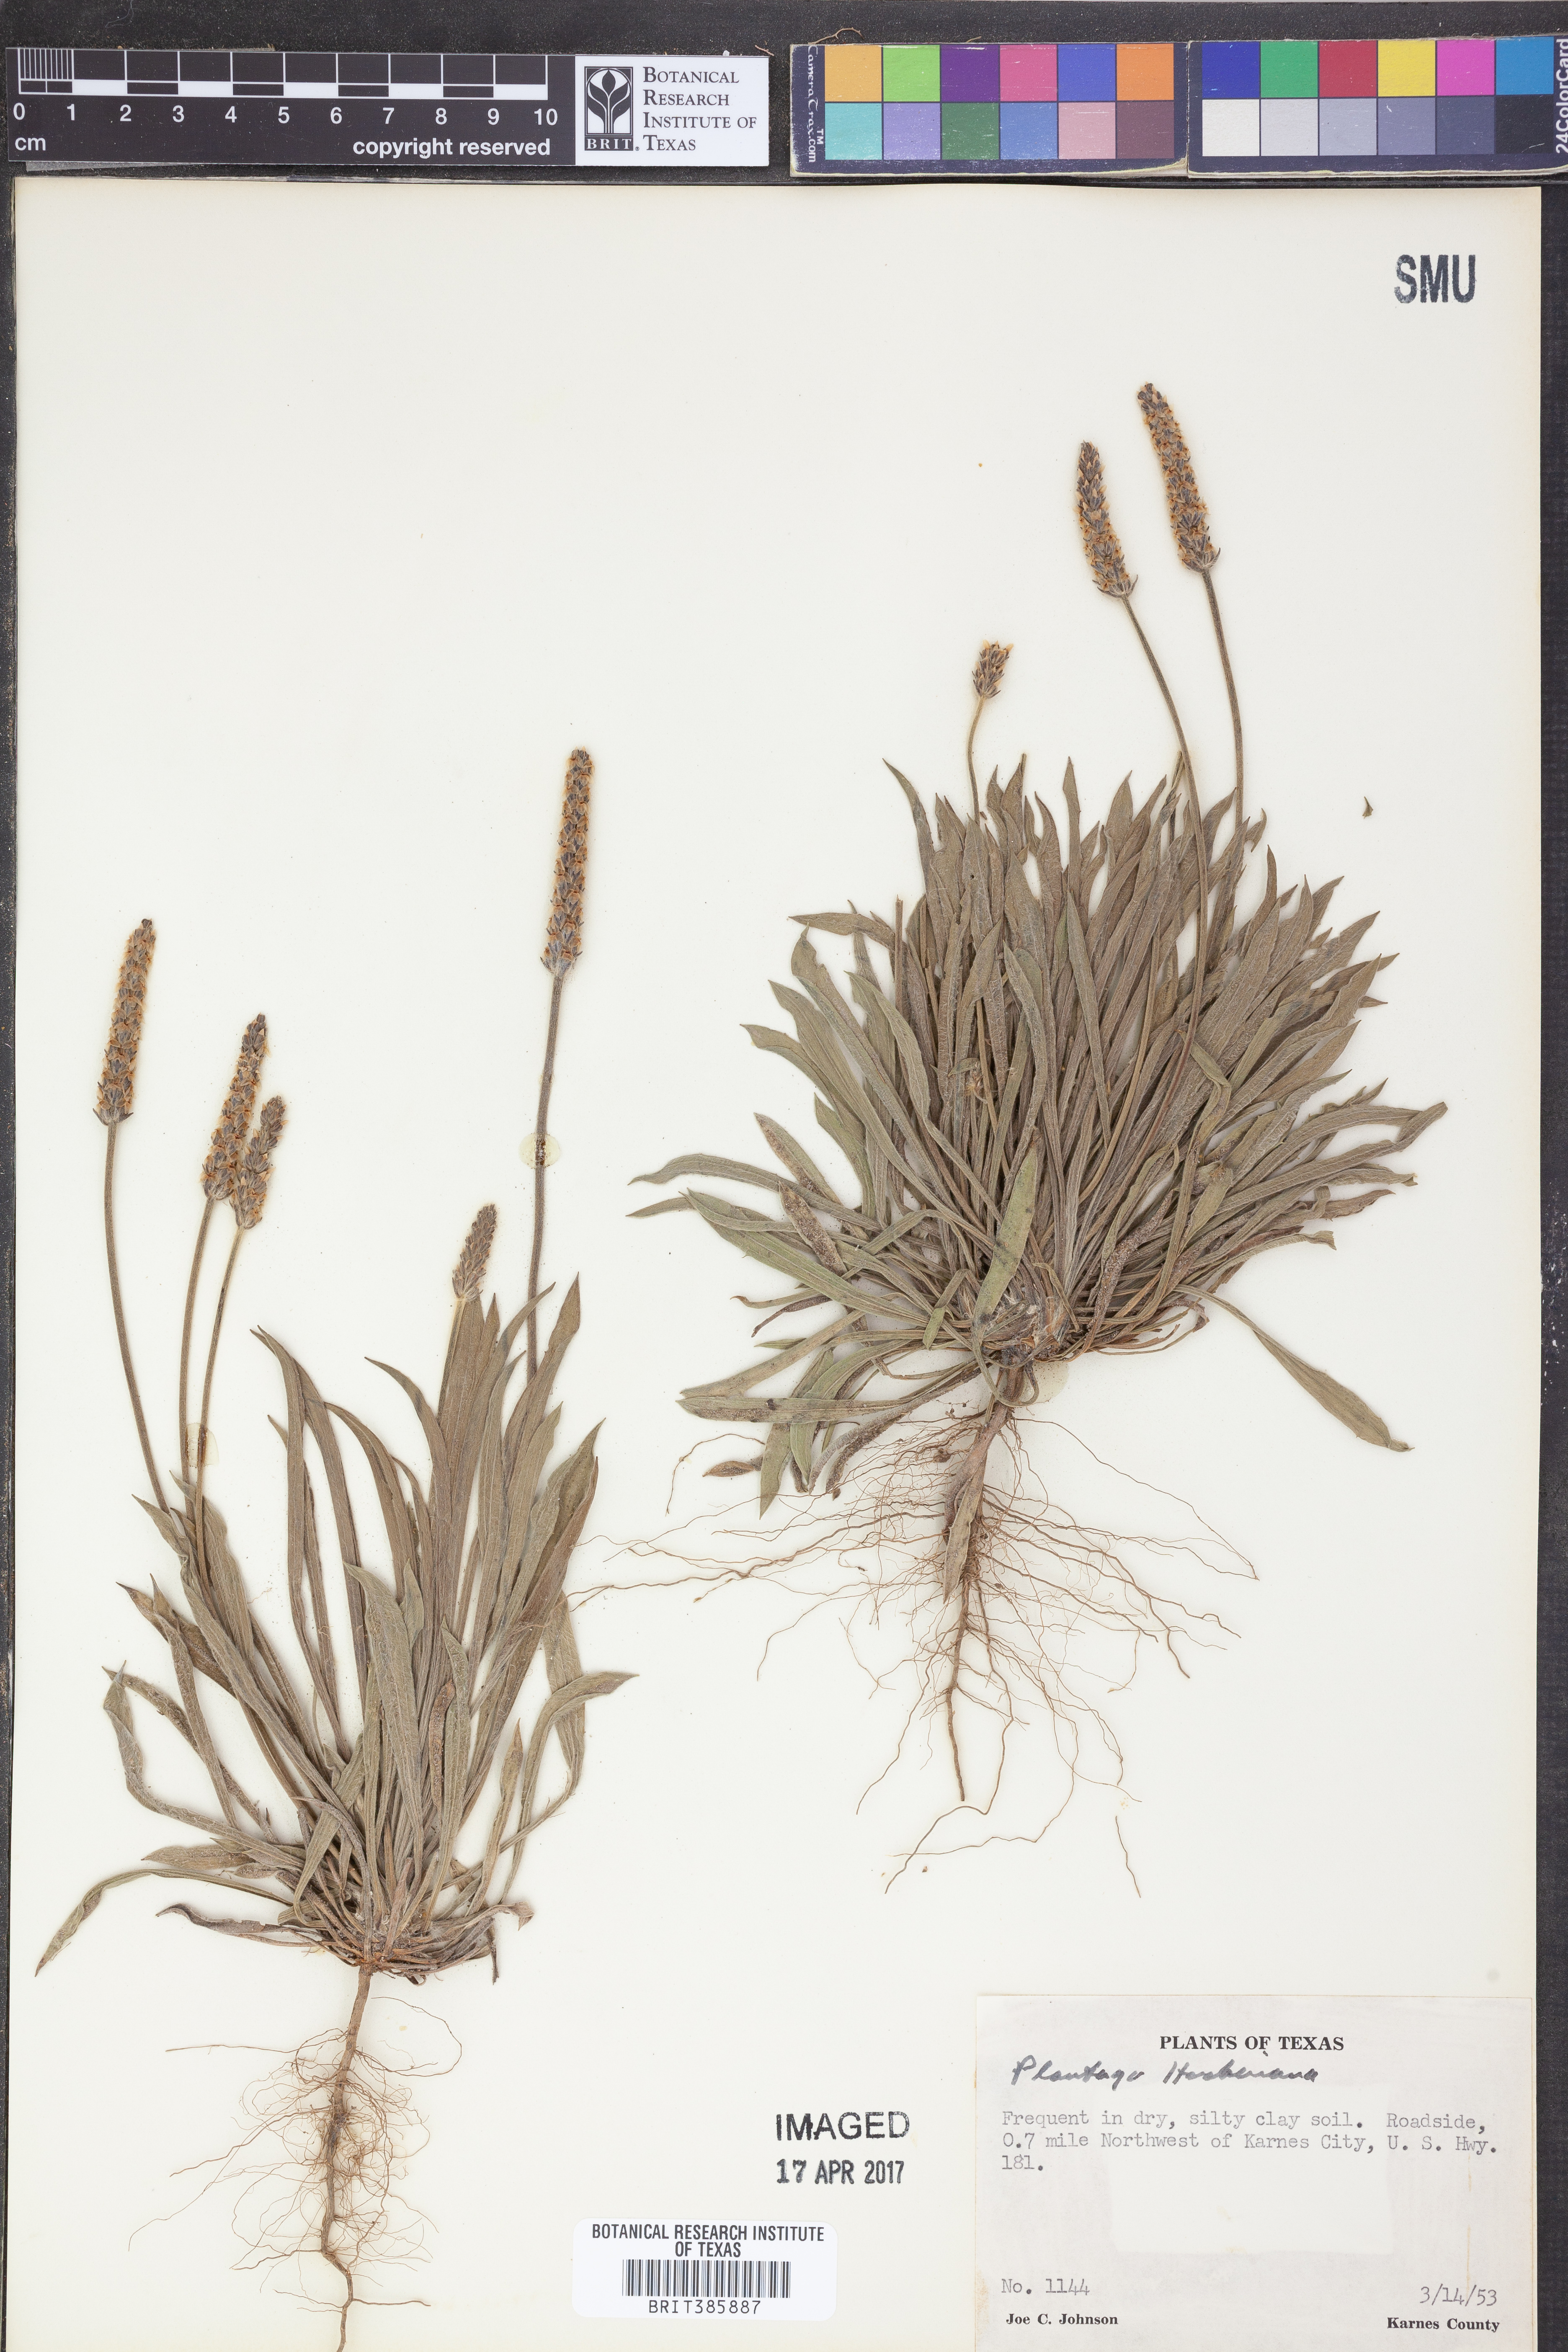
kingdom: Plantae
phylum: Tracheophyta
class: Magnoliopsida
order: Lamiales
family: Plantaginaceae
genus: Plantago
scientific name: Plantago
